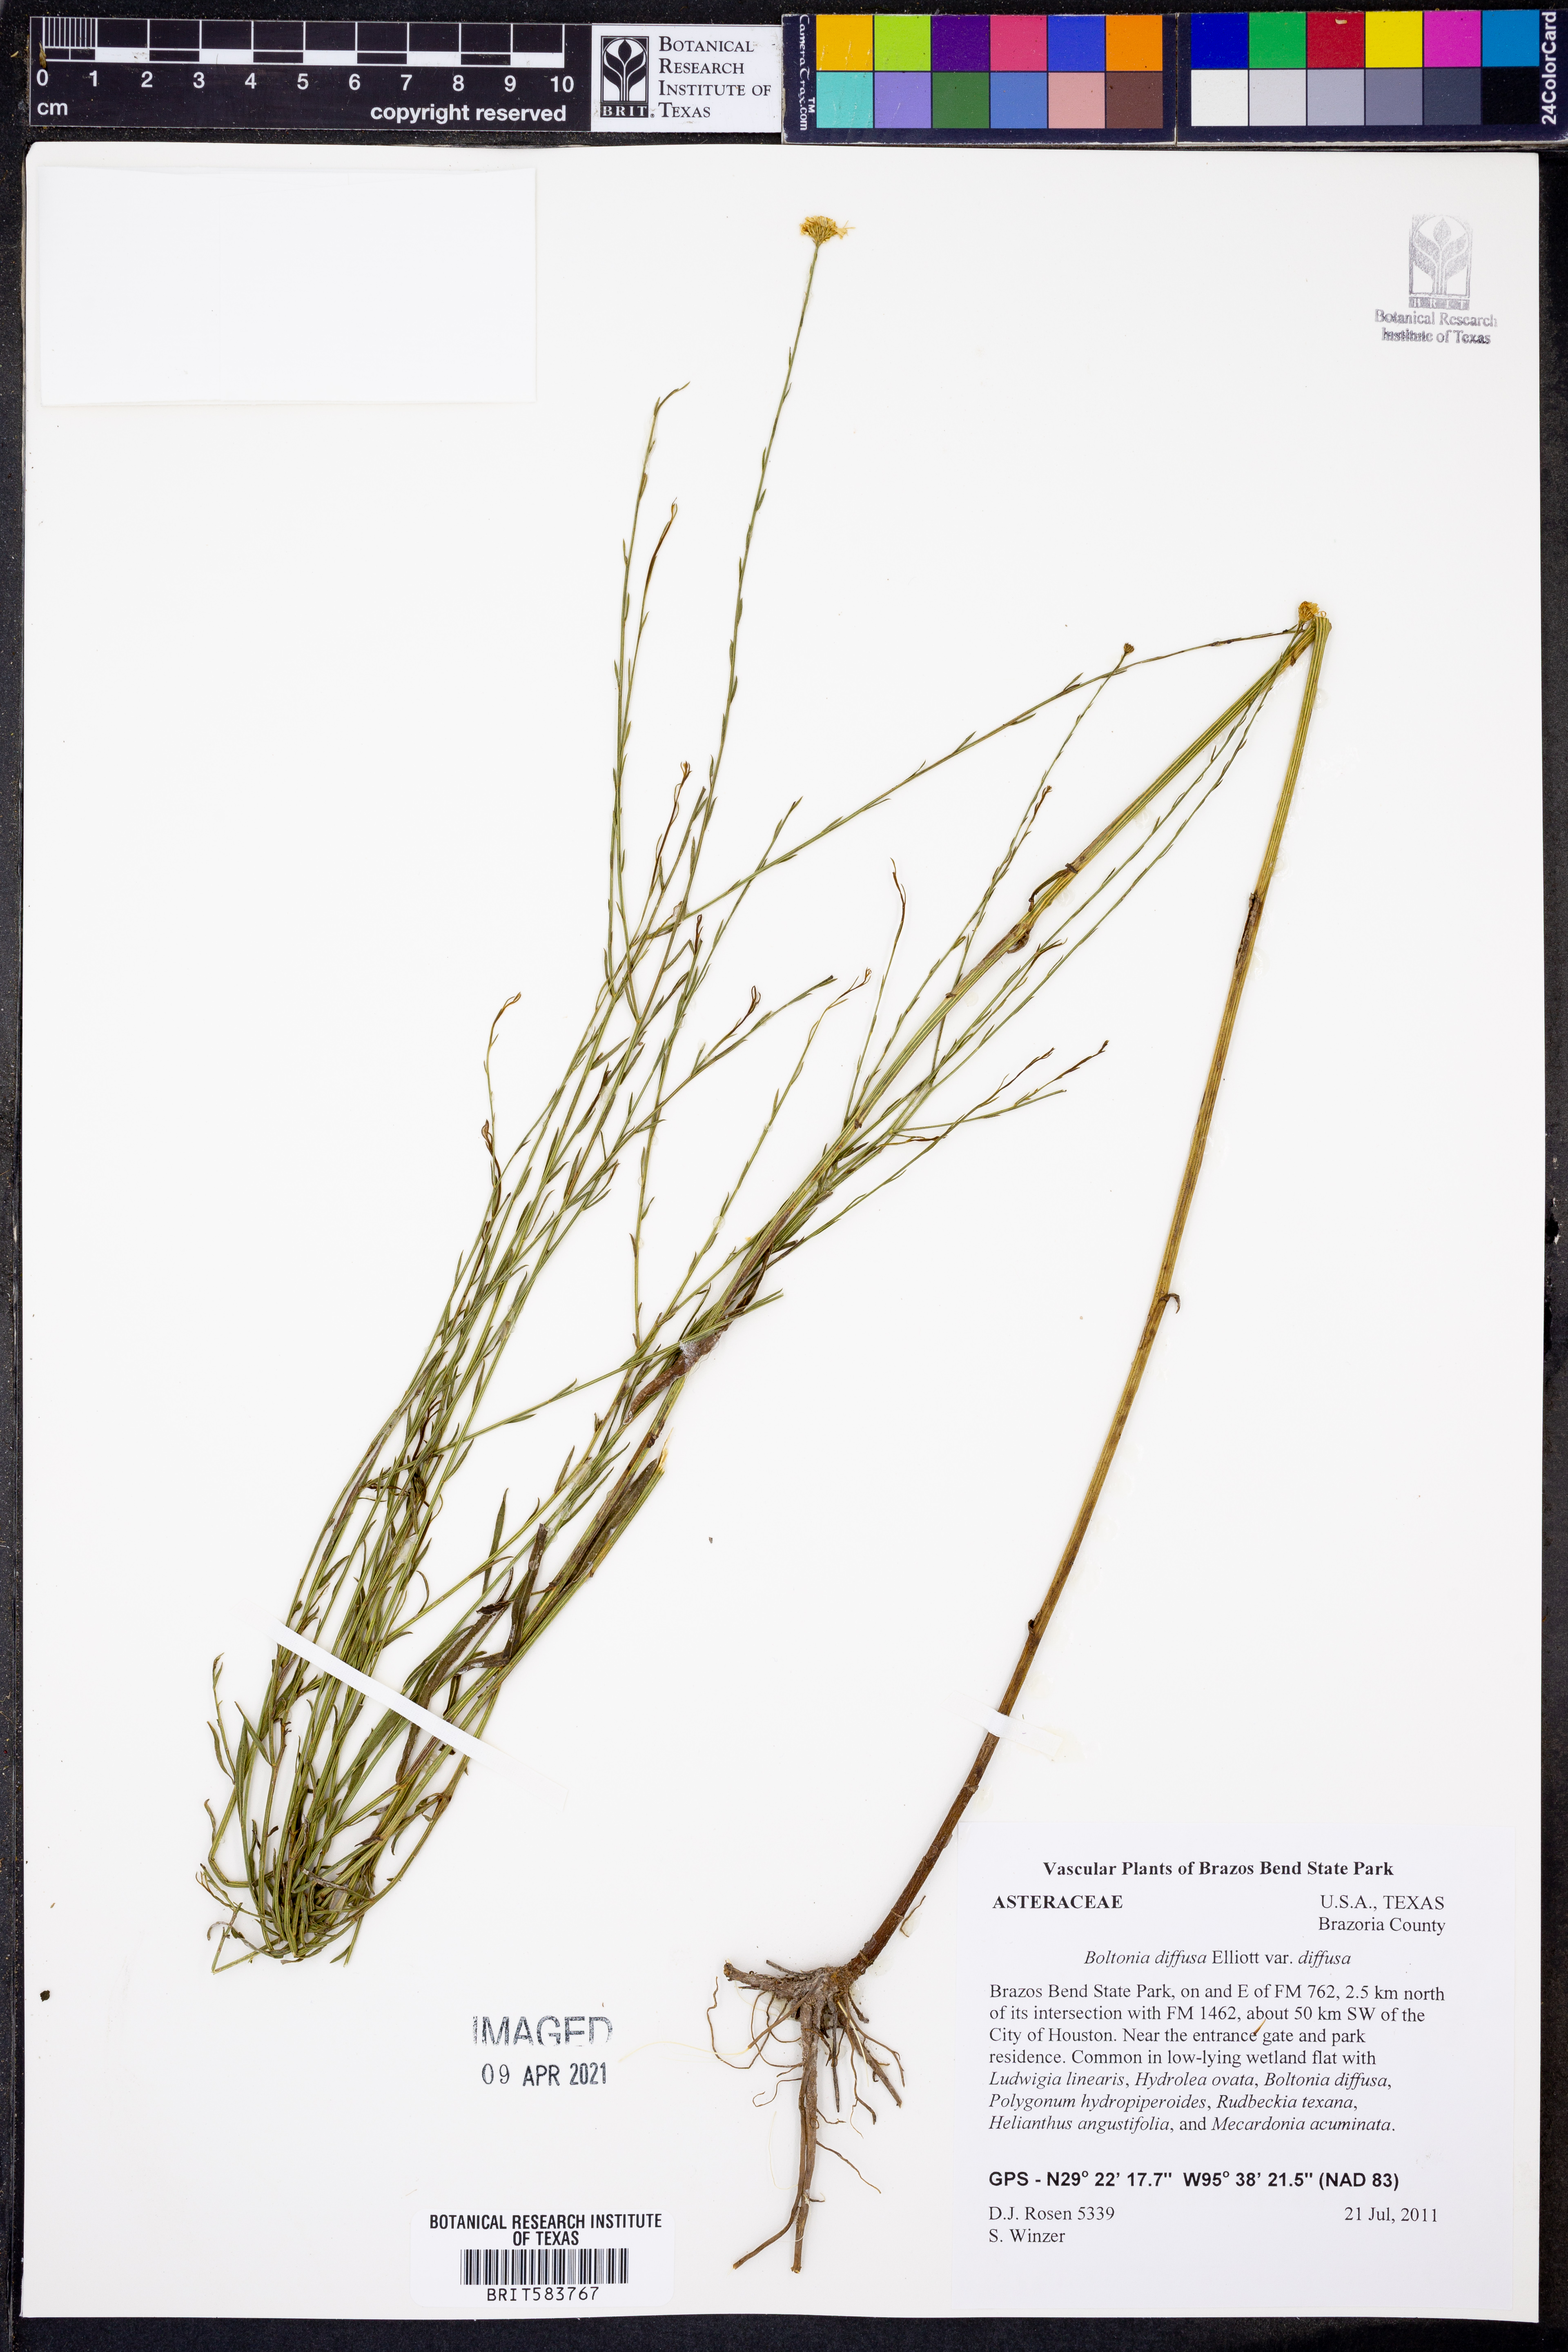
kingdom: Plantae
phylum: Tracheophyta
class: Magnoliopsida
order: Asterales
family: Asteraceae
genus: Boltonia
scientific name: Boltonia diffusa
